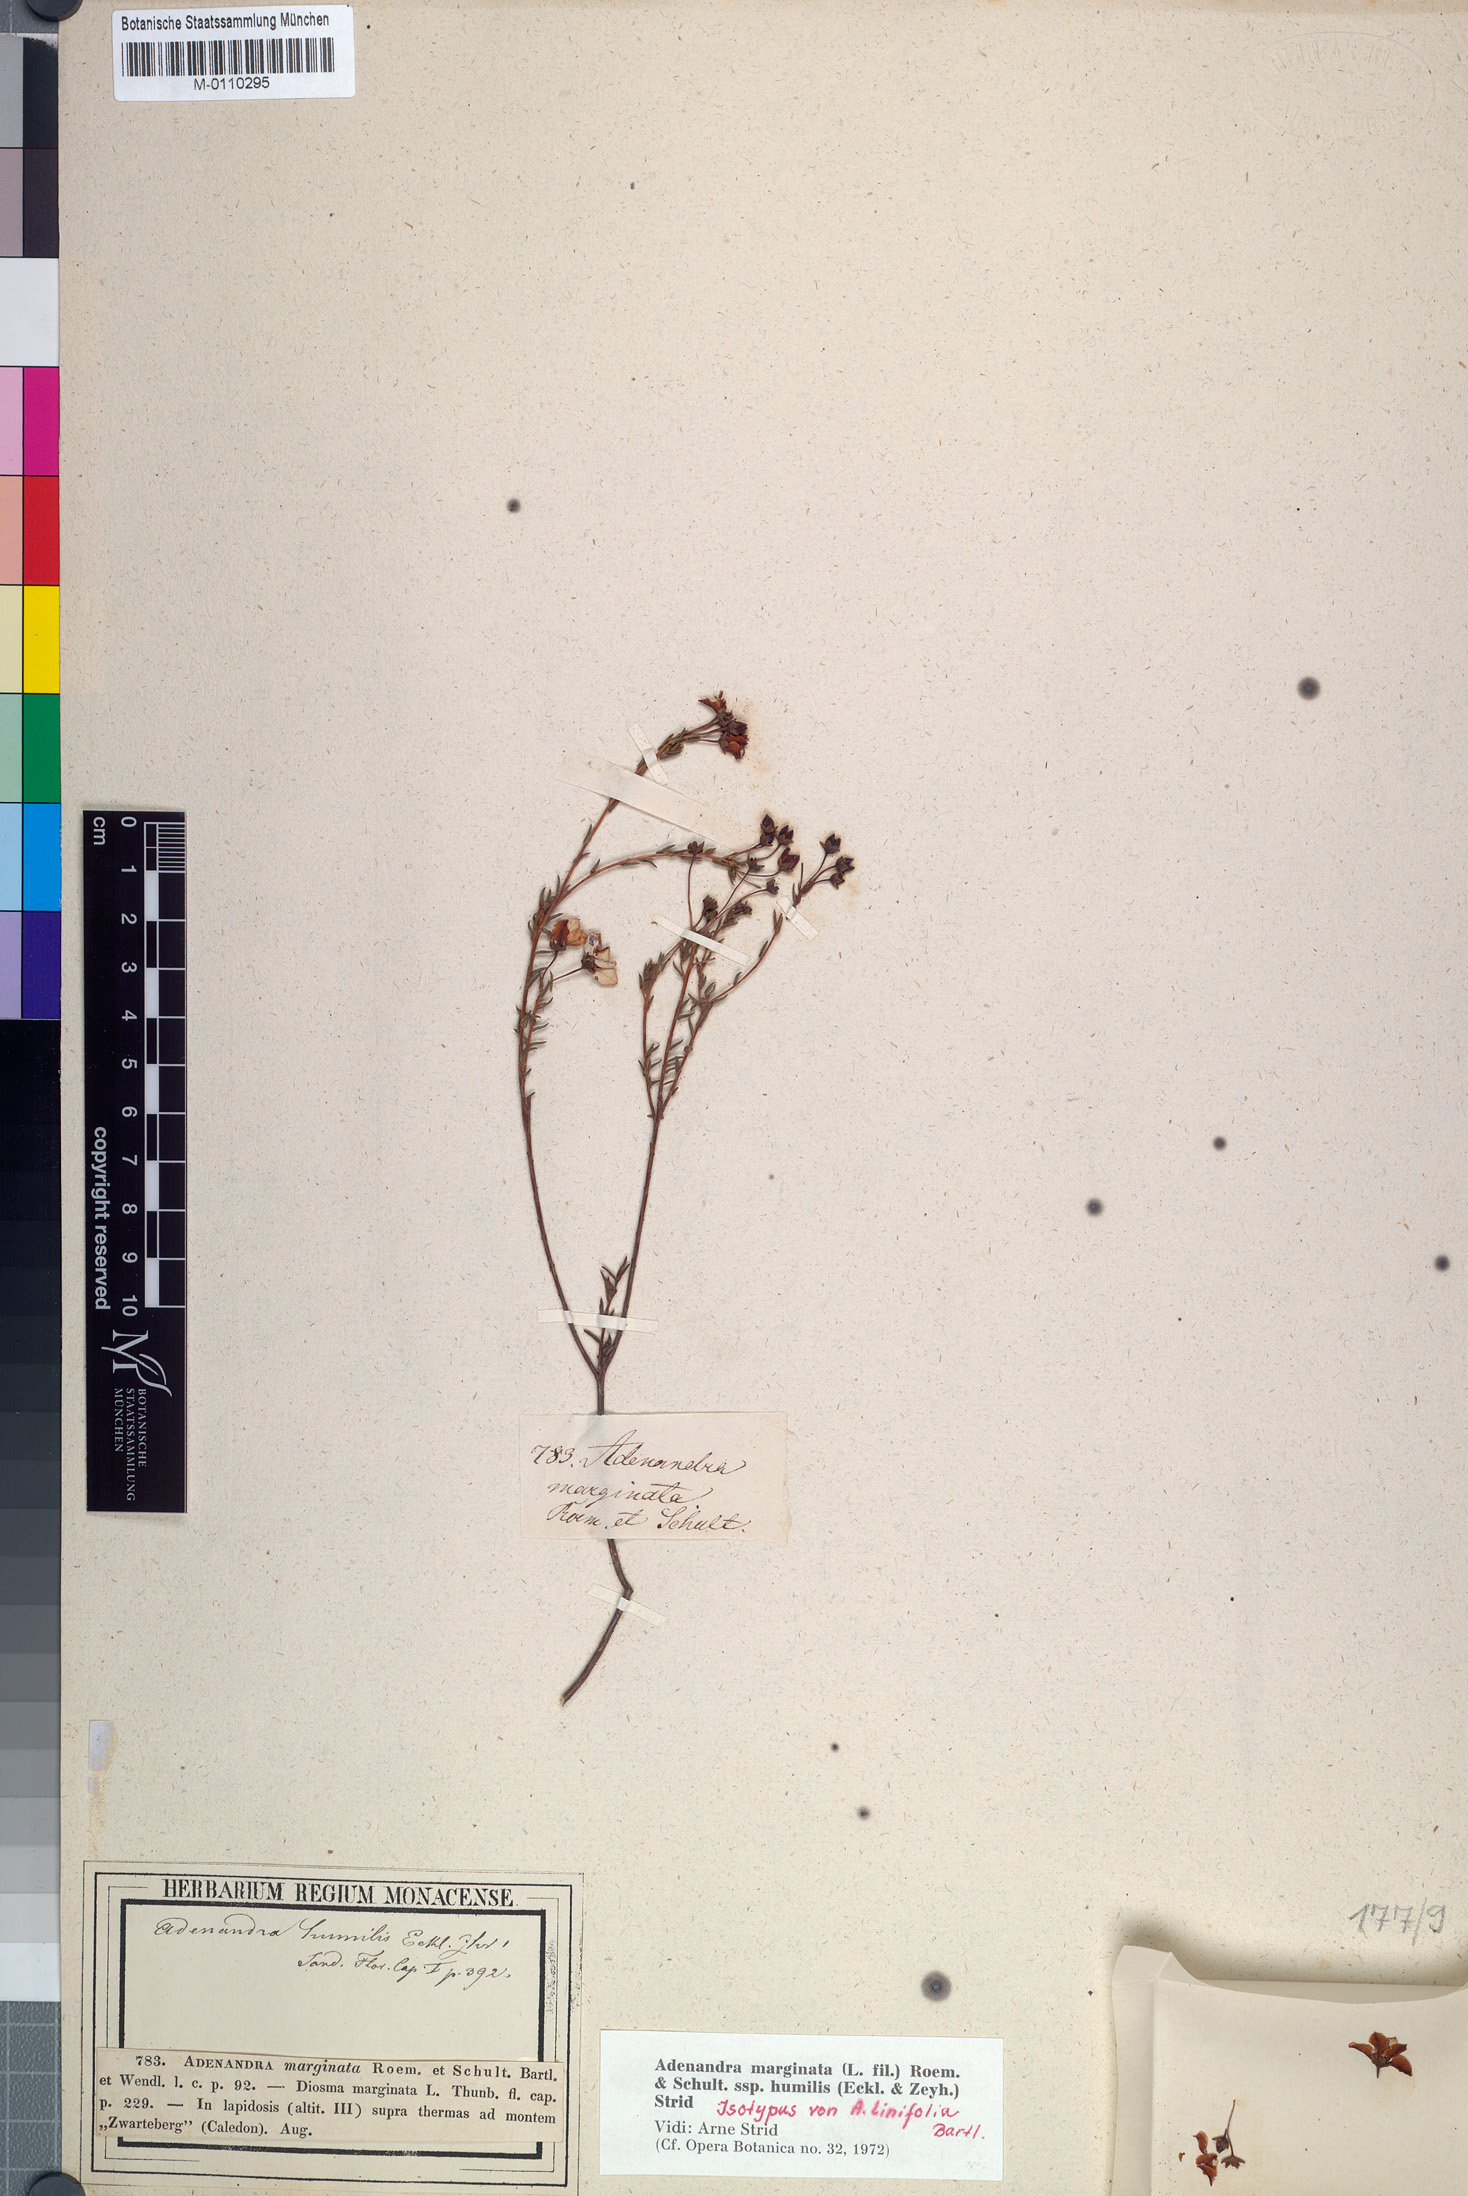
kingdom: Plantae
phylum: Tracheophyta
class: Magnoliopsida
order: Sapindales
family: Rutaceae
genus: Adenandra
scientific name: Adenandra marginata
